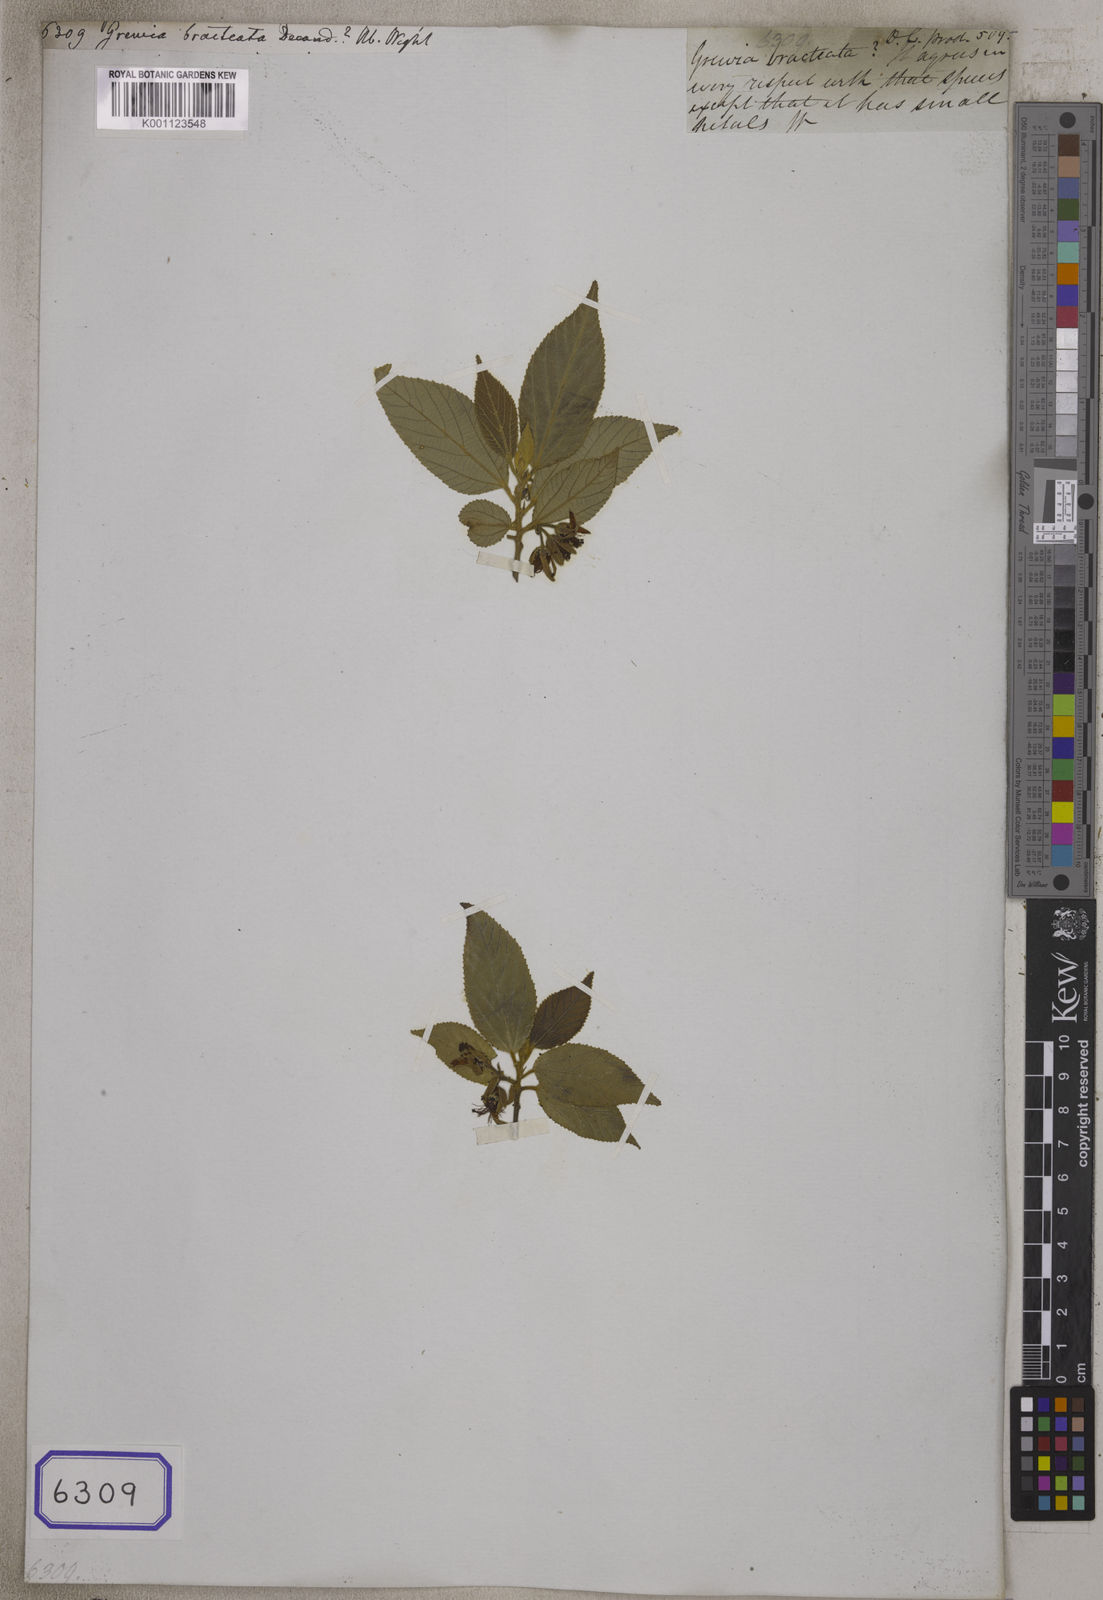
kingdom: Plantae
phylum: Tracheophyta
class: Magnoliopsida
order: Malvales
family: Malvaceae
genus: Grewia
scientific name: Grewia bracteata
